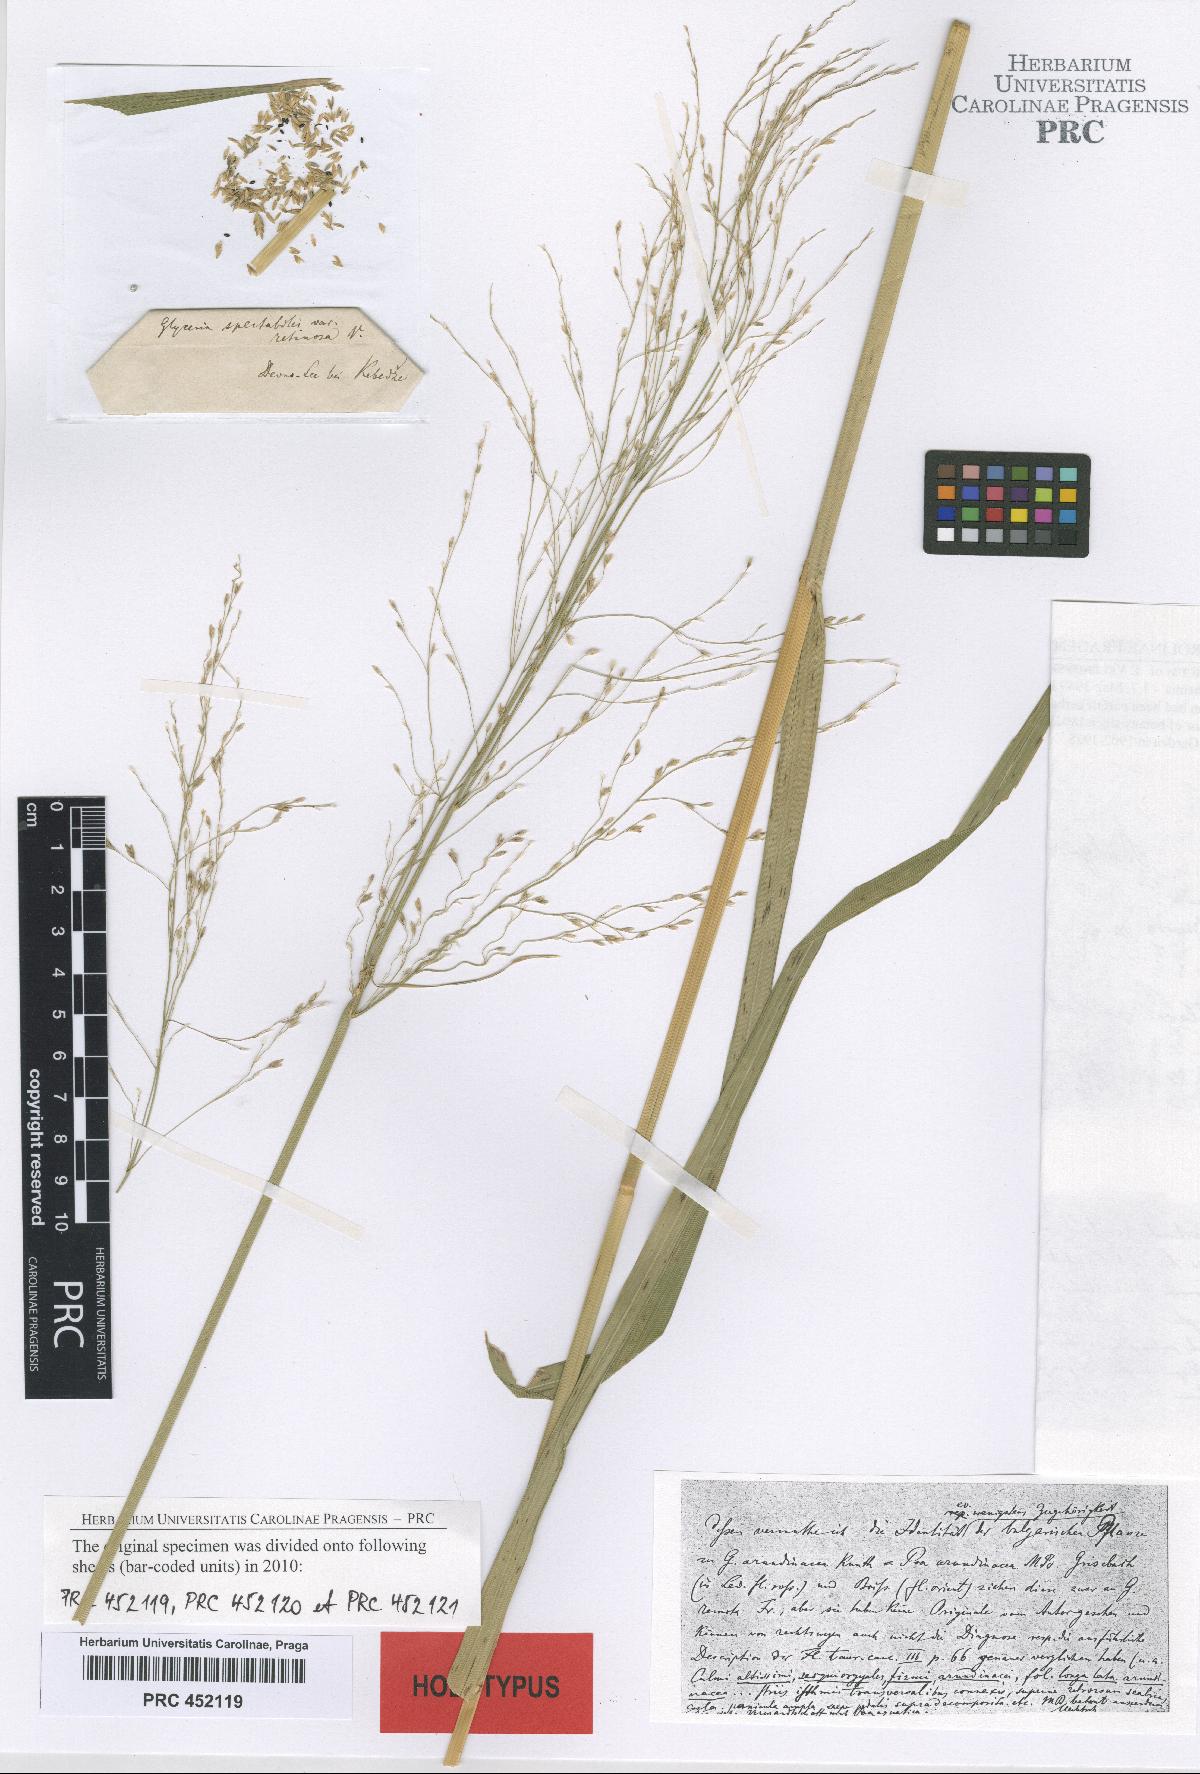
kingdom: Plantae
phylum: Tracheophyta
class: Liliopsida
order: Poales
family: Poaceae
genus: Glyceria
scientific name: Glyceria arundinacea
